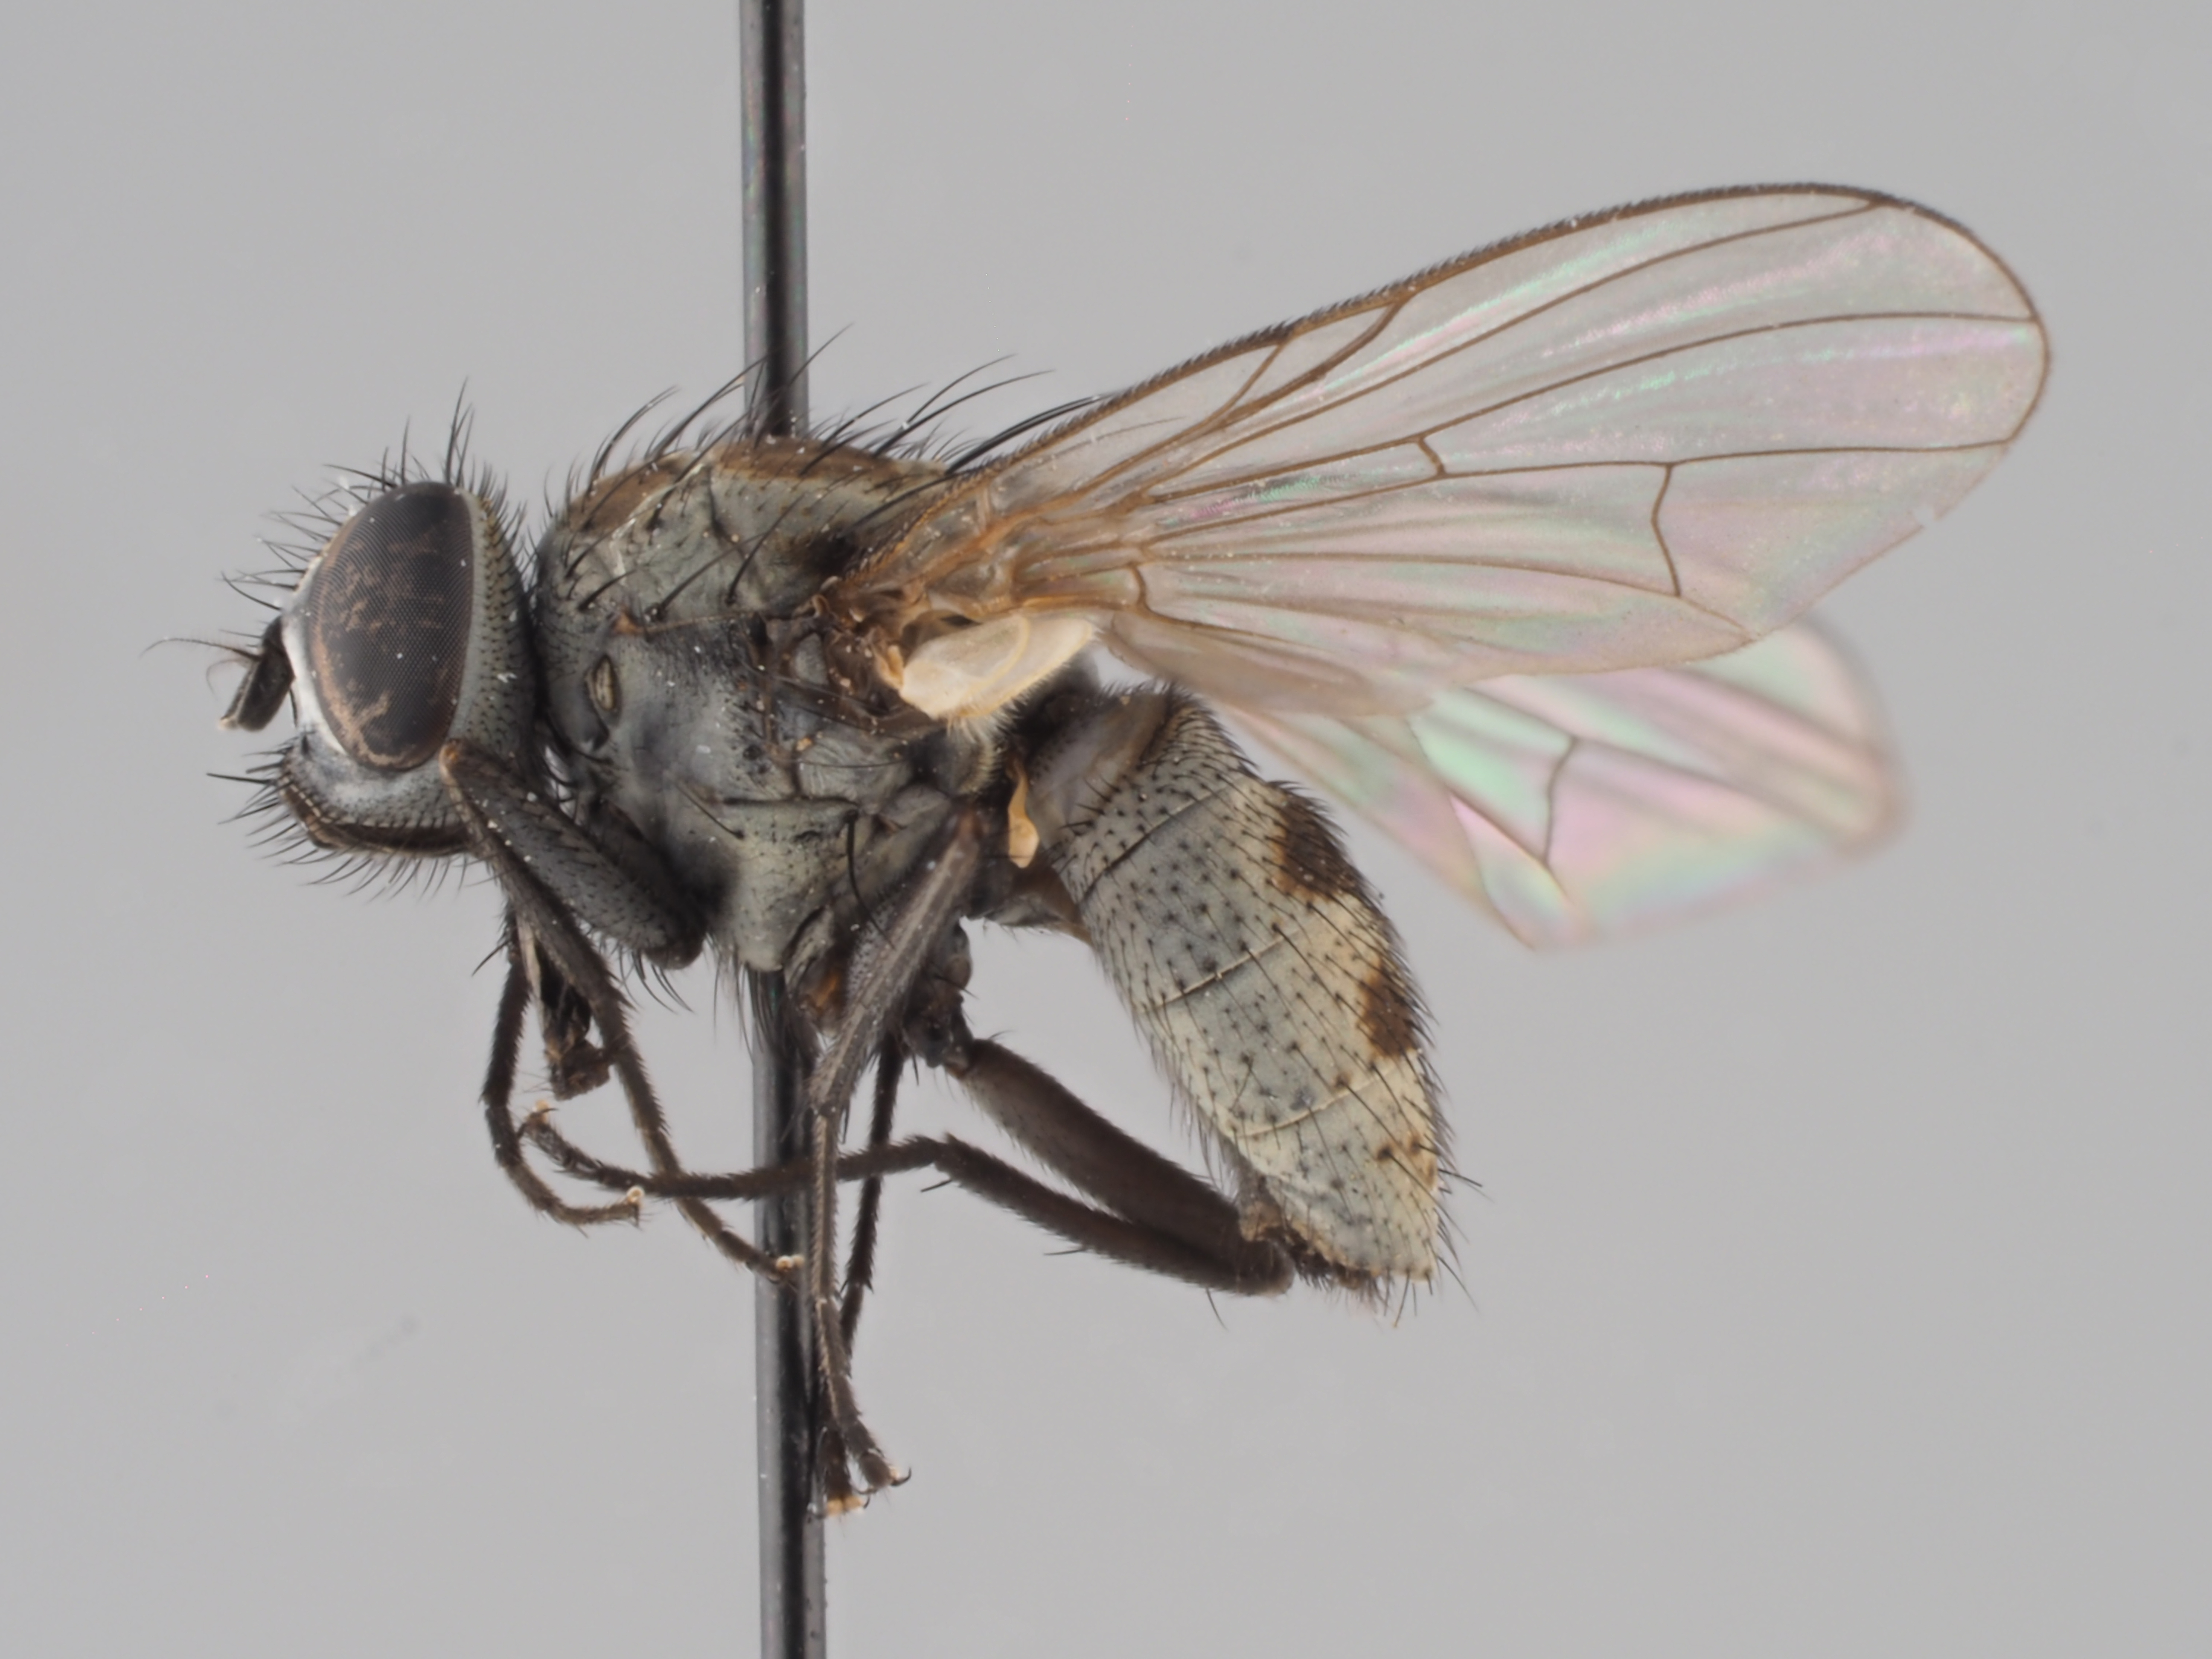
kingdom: Animalia
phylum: Arthropoda
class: Insecta
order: Diptera
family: Muscidae
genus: Limnophora
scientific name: Limnophora tigrina
